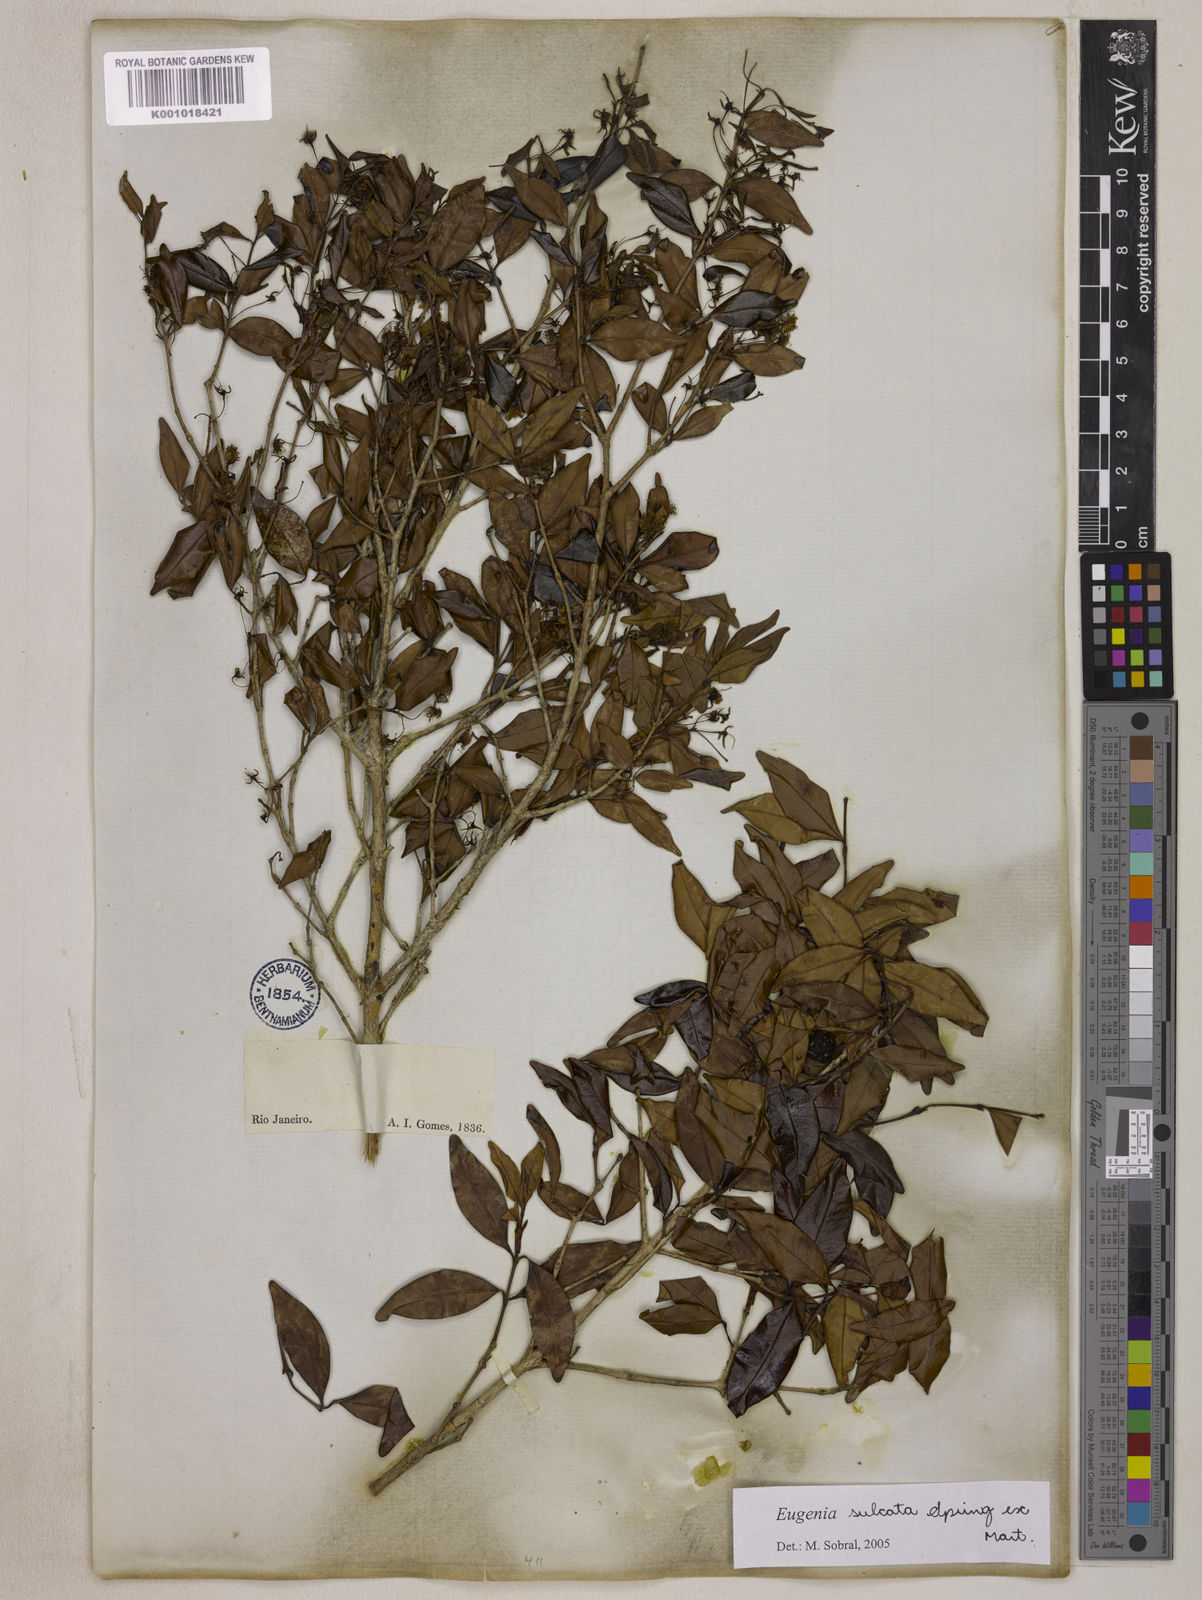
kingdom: Plantae
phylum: Tracheophyta
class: Magnoliopsida
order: Myrtales
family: Myrtaceae
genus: Eugenia
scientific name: Eugenia sulcata
